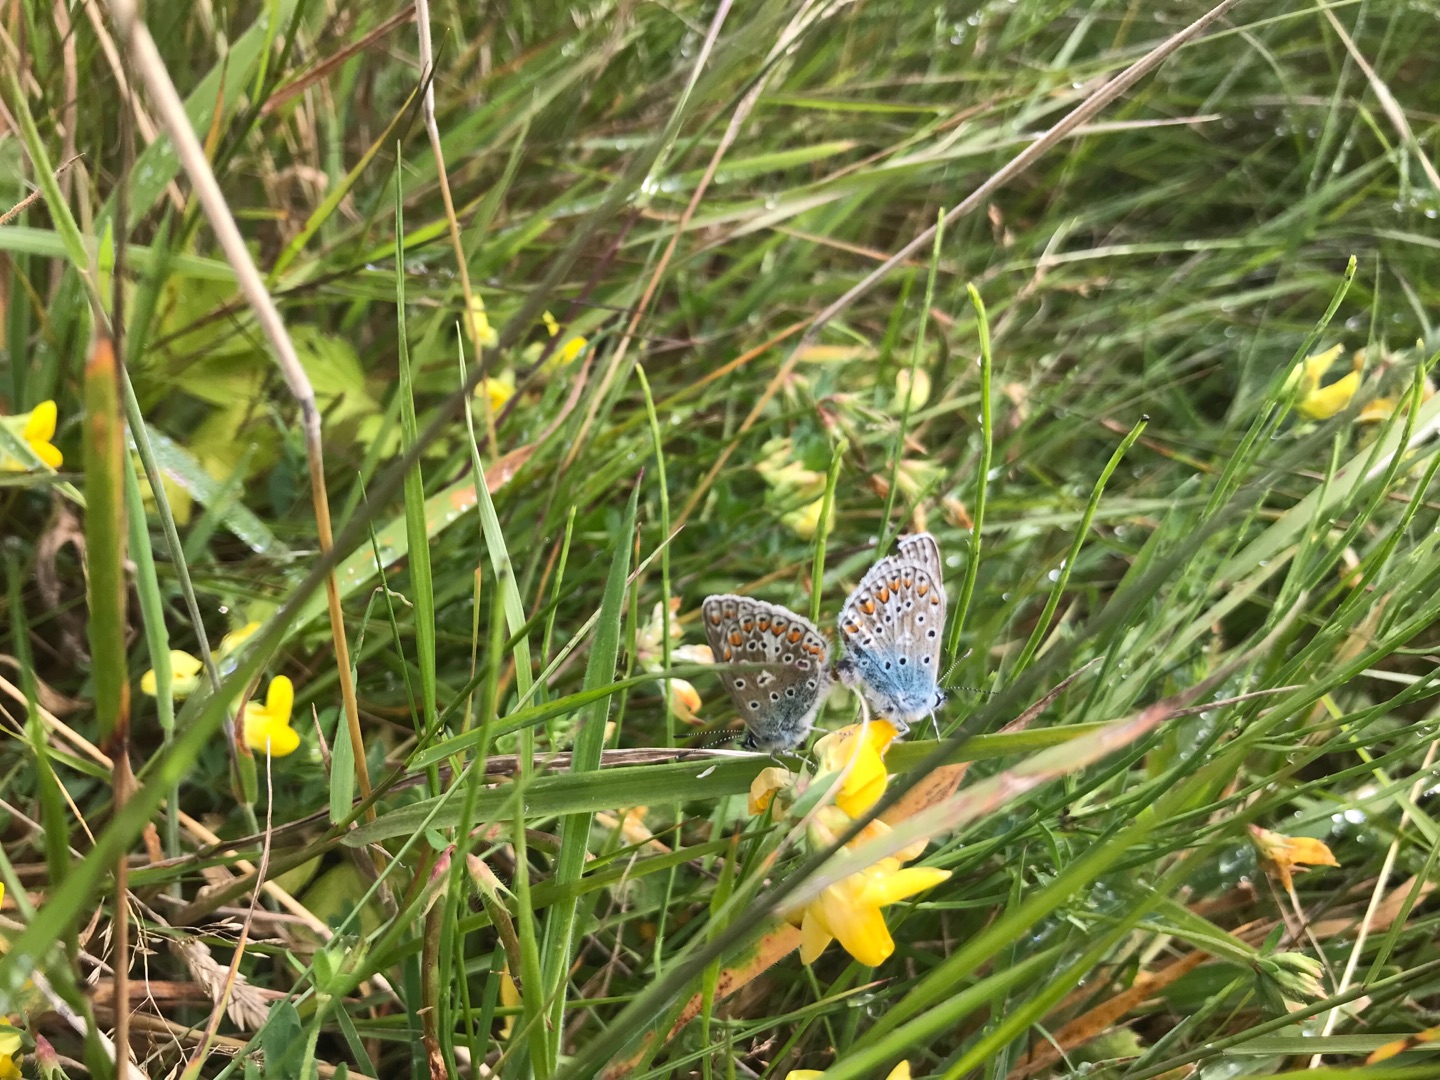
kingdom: Animalia
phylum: Arthropoda
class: Insecta
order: Lepidoptera
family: Lycaenidae
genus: Polyommatus
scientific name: Polyommatus icarus
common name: Almindelig blåfugl
